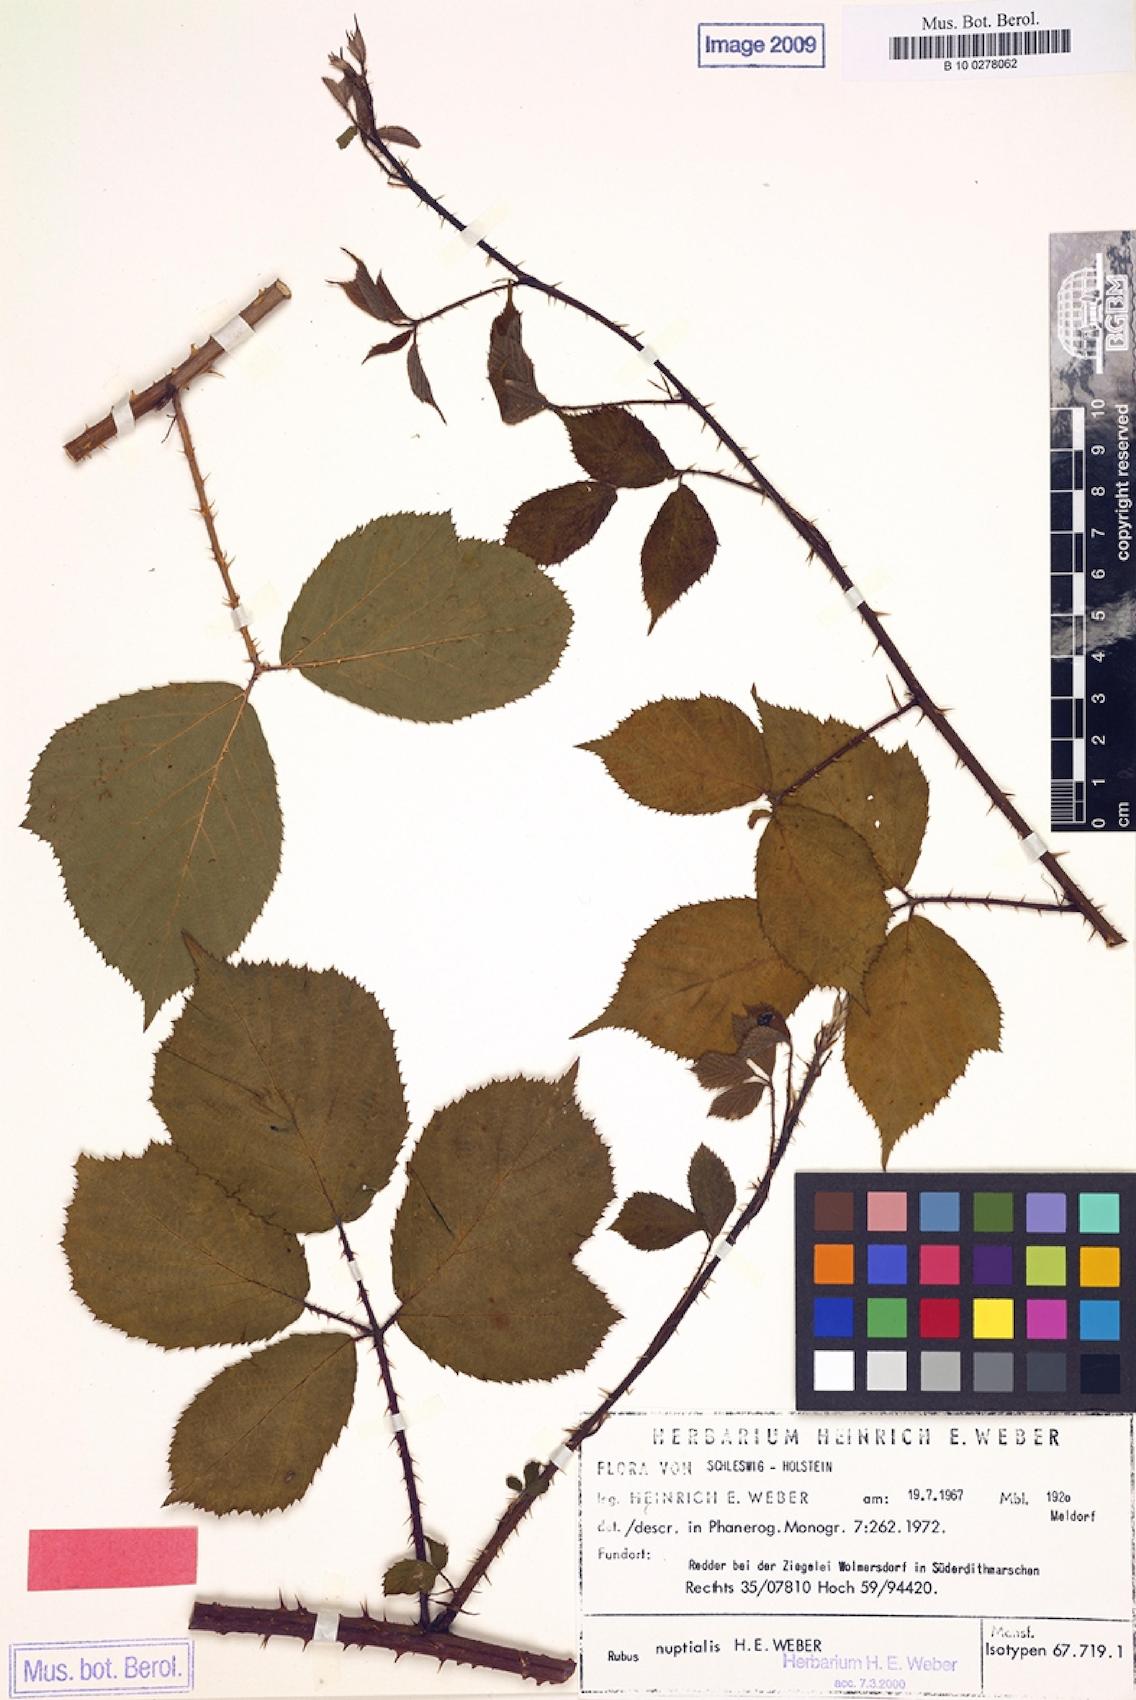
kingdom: Plantae
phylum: Tracheophyta
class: Magnoliopsida
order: Rosales
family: Rosaceae
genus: Rubus
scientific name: Rubus nuptialis
